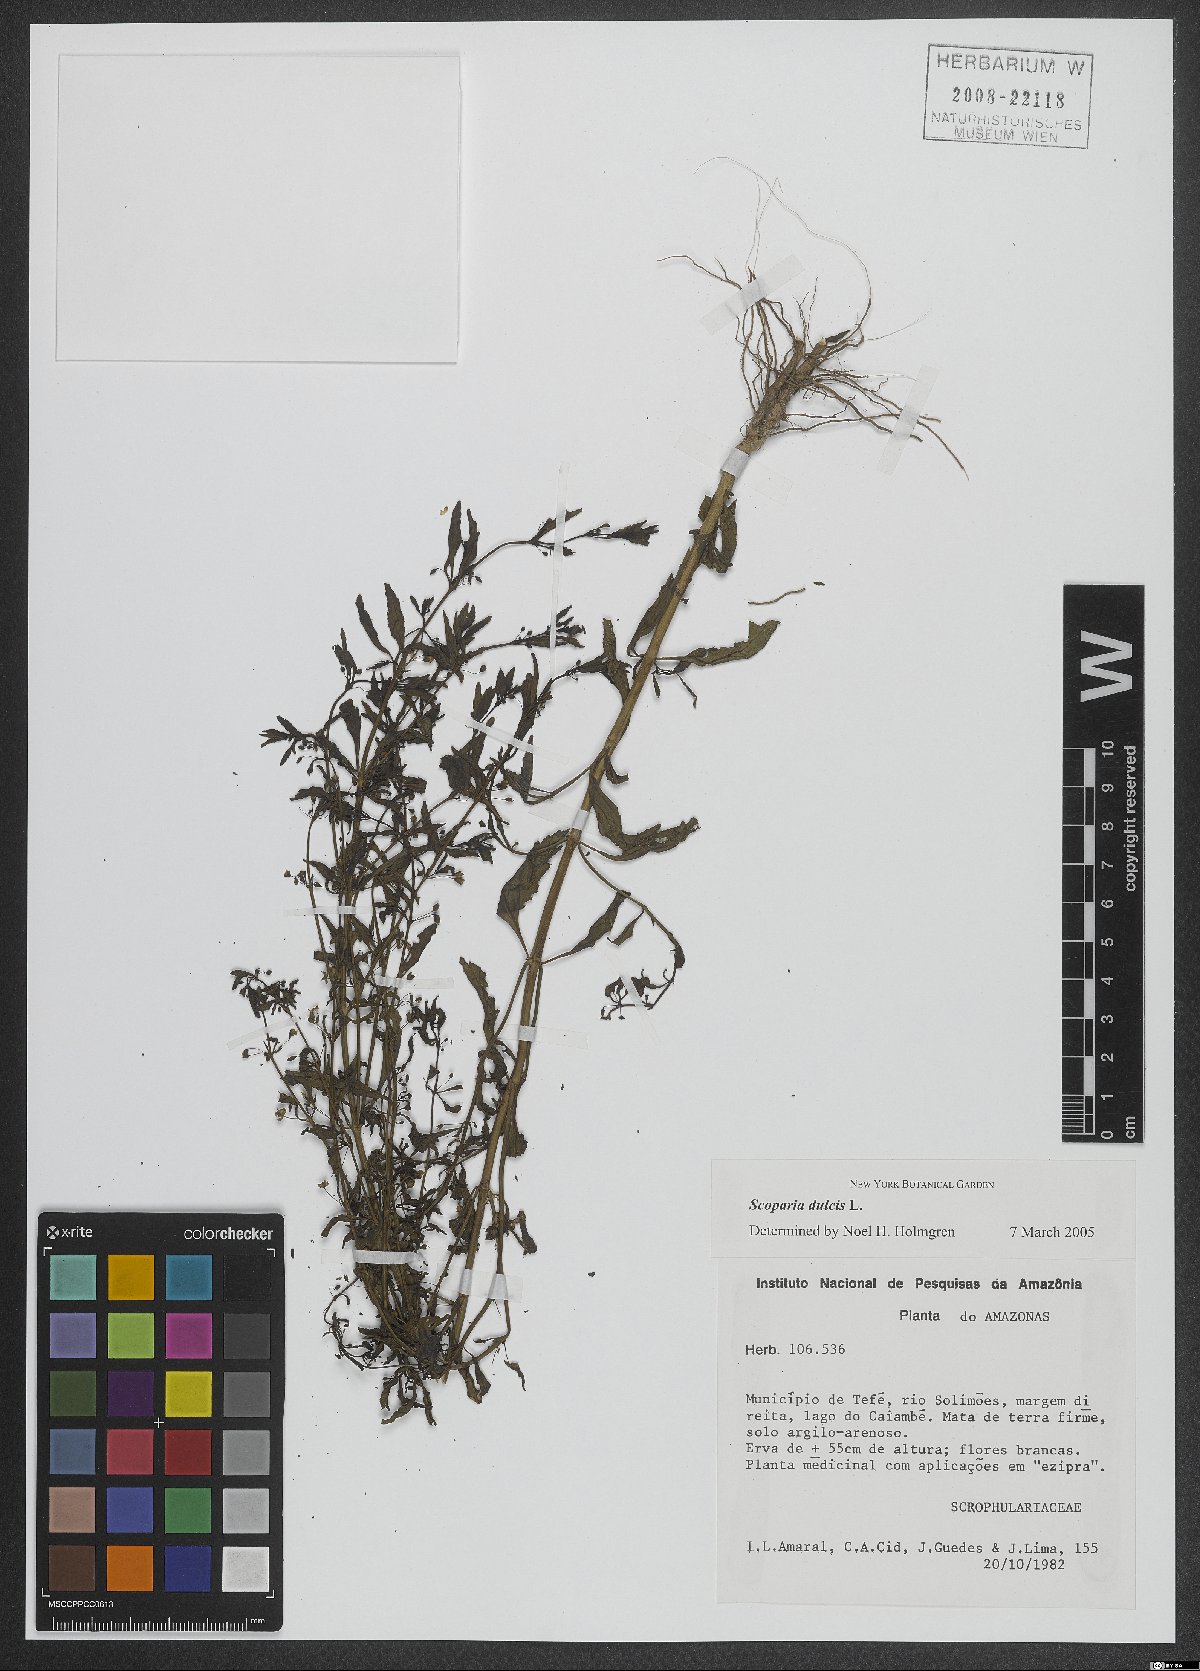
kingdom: Plantae
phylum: Tracheophyta
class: Magnoliopsida
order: Lamiales
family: Plantaginaceae
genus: Scoparia
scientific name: Scoparia dulcis
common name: Scoparia-weed
